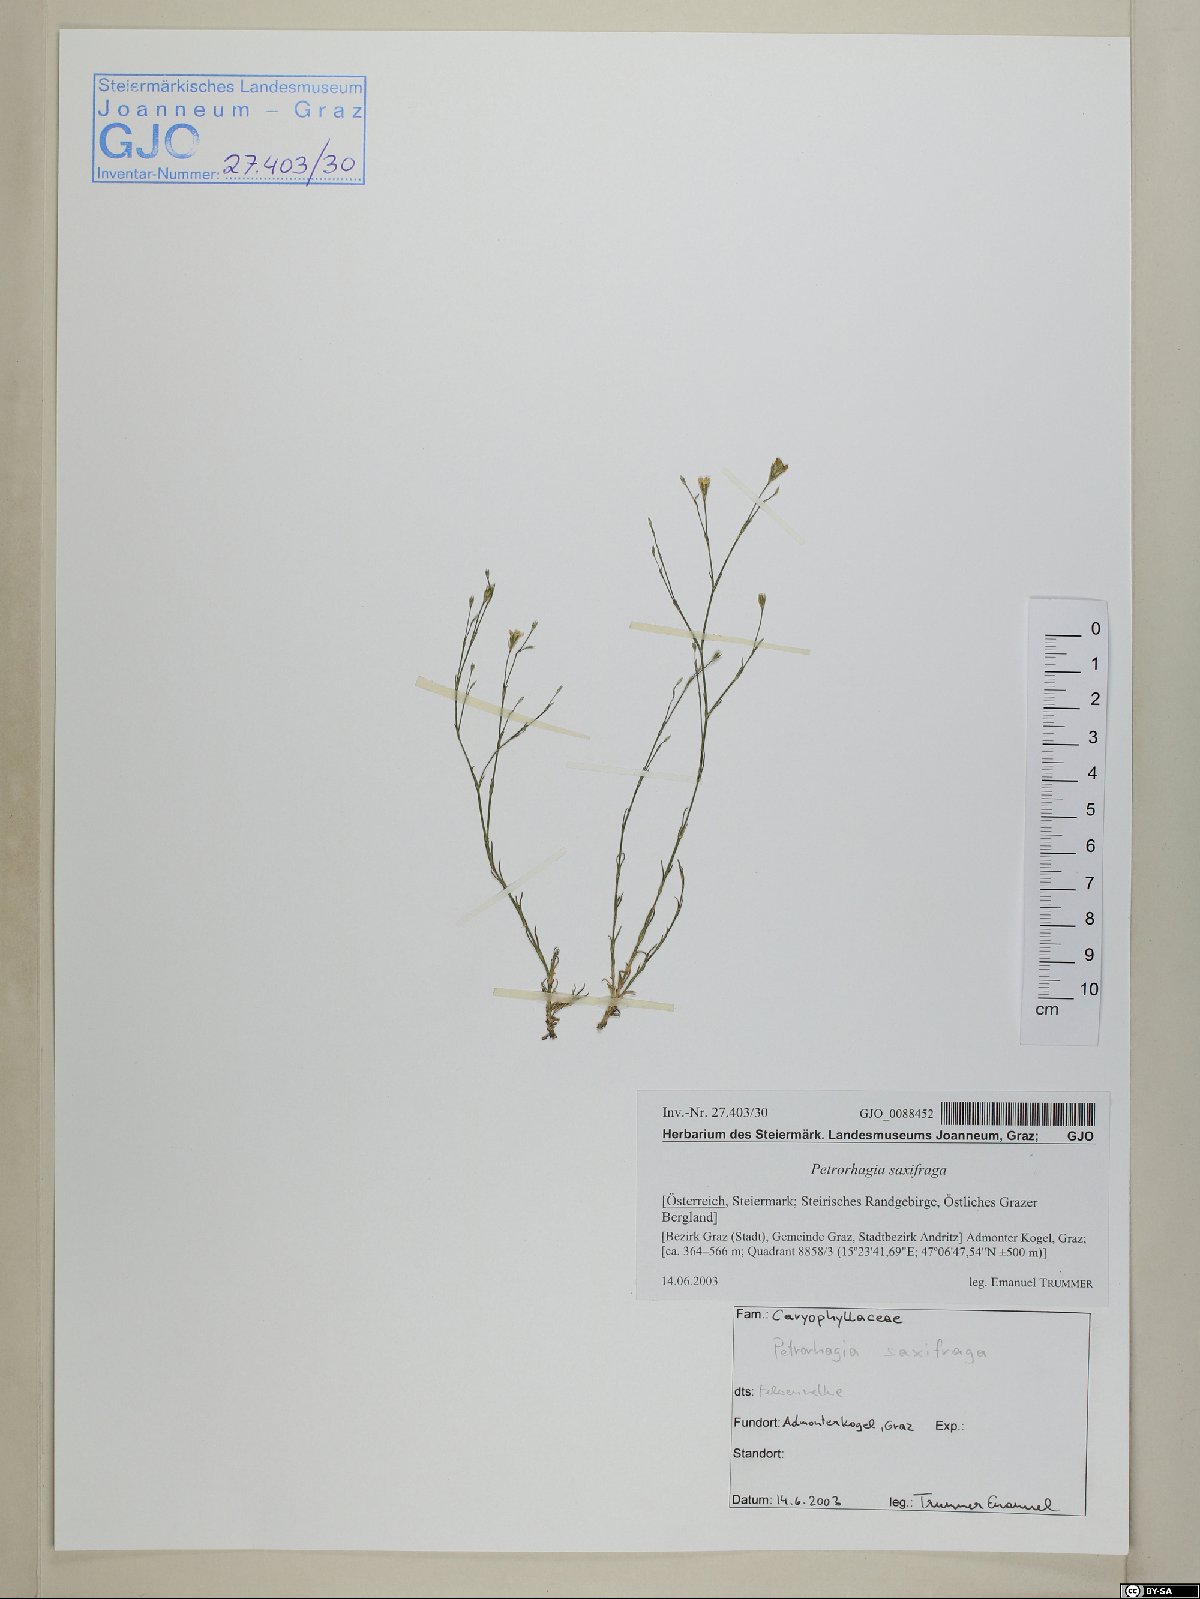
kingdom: Plantae
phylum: Tracheophyta
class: Magnoliopsida
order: Caryophyllales
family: Caryophyllaceae
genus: Petrorhagia
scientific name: Petrorhagia saxifraga
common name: Tunicflower
